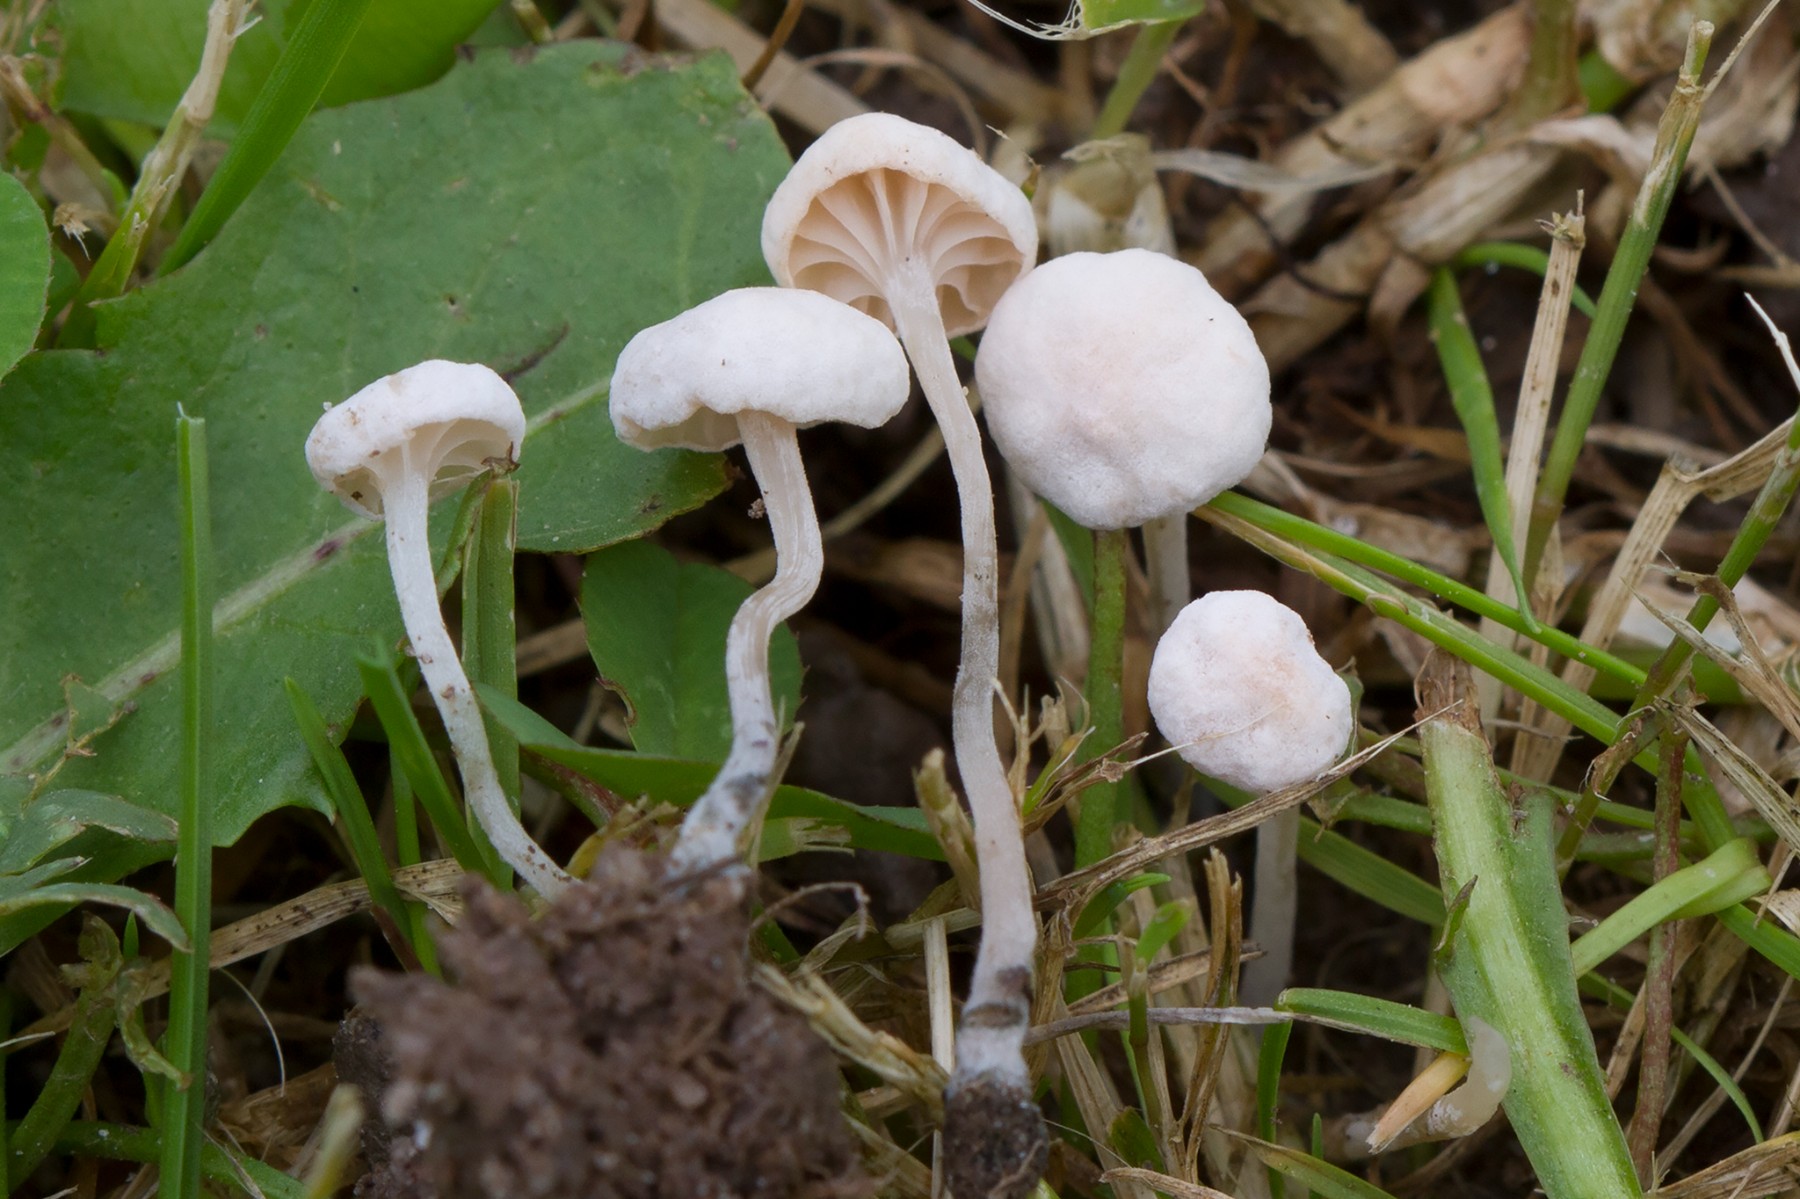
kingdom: Fungi
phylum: Basidiomycota
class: Agaricomycetes
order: Agaricales
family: Omphalotaceae
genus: Marasmiellus
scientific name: Marasmiellus tricolor
